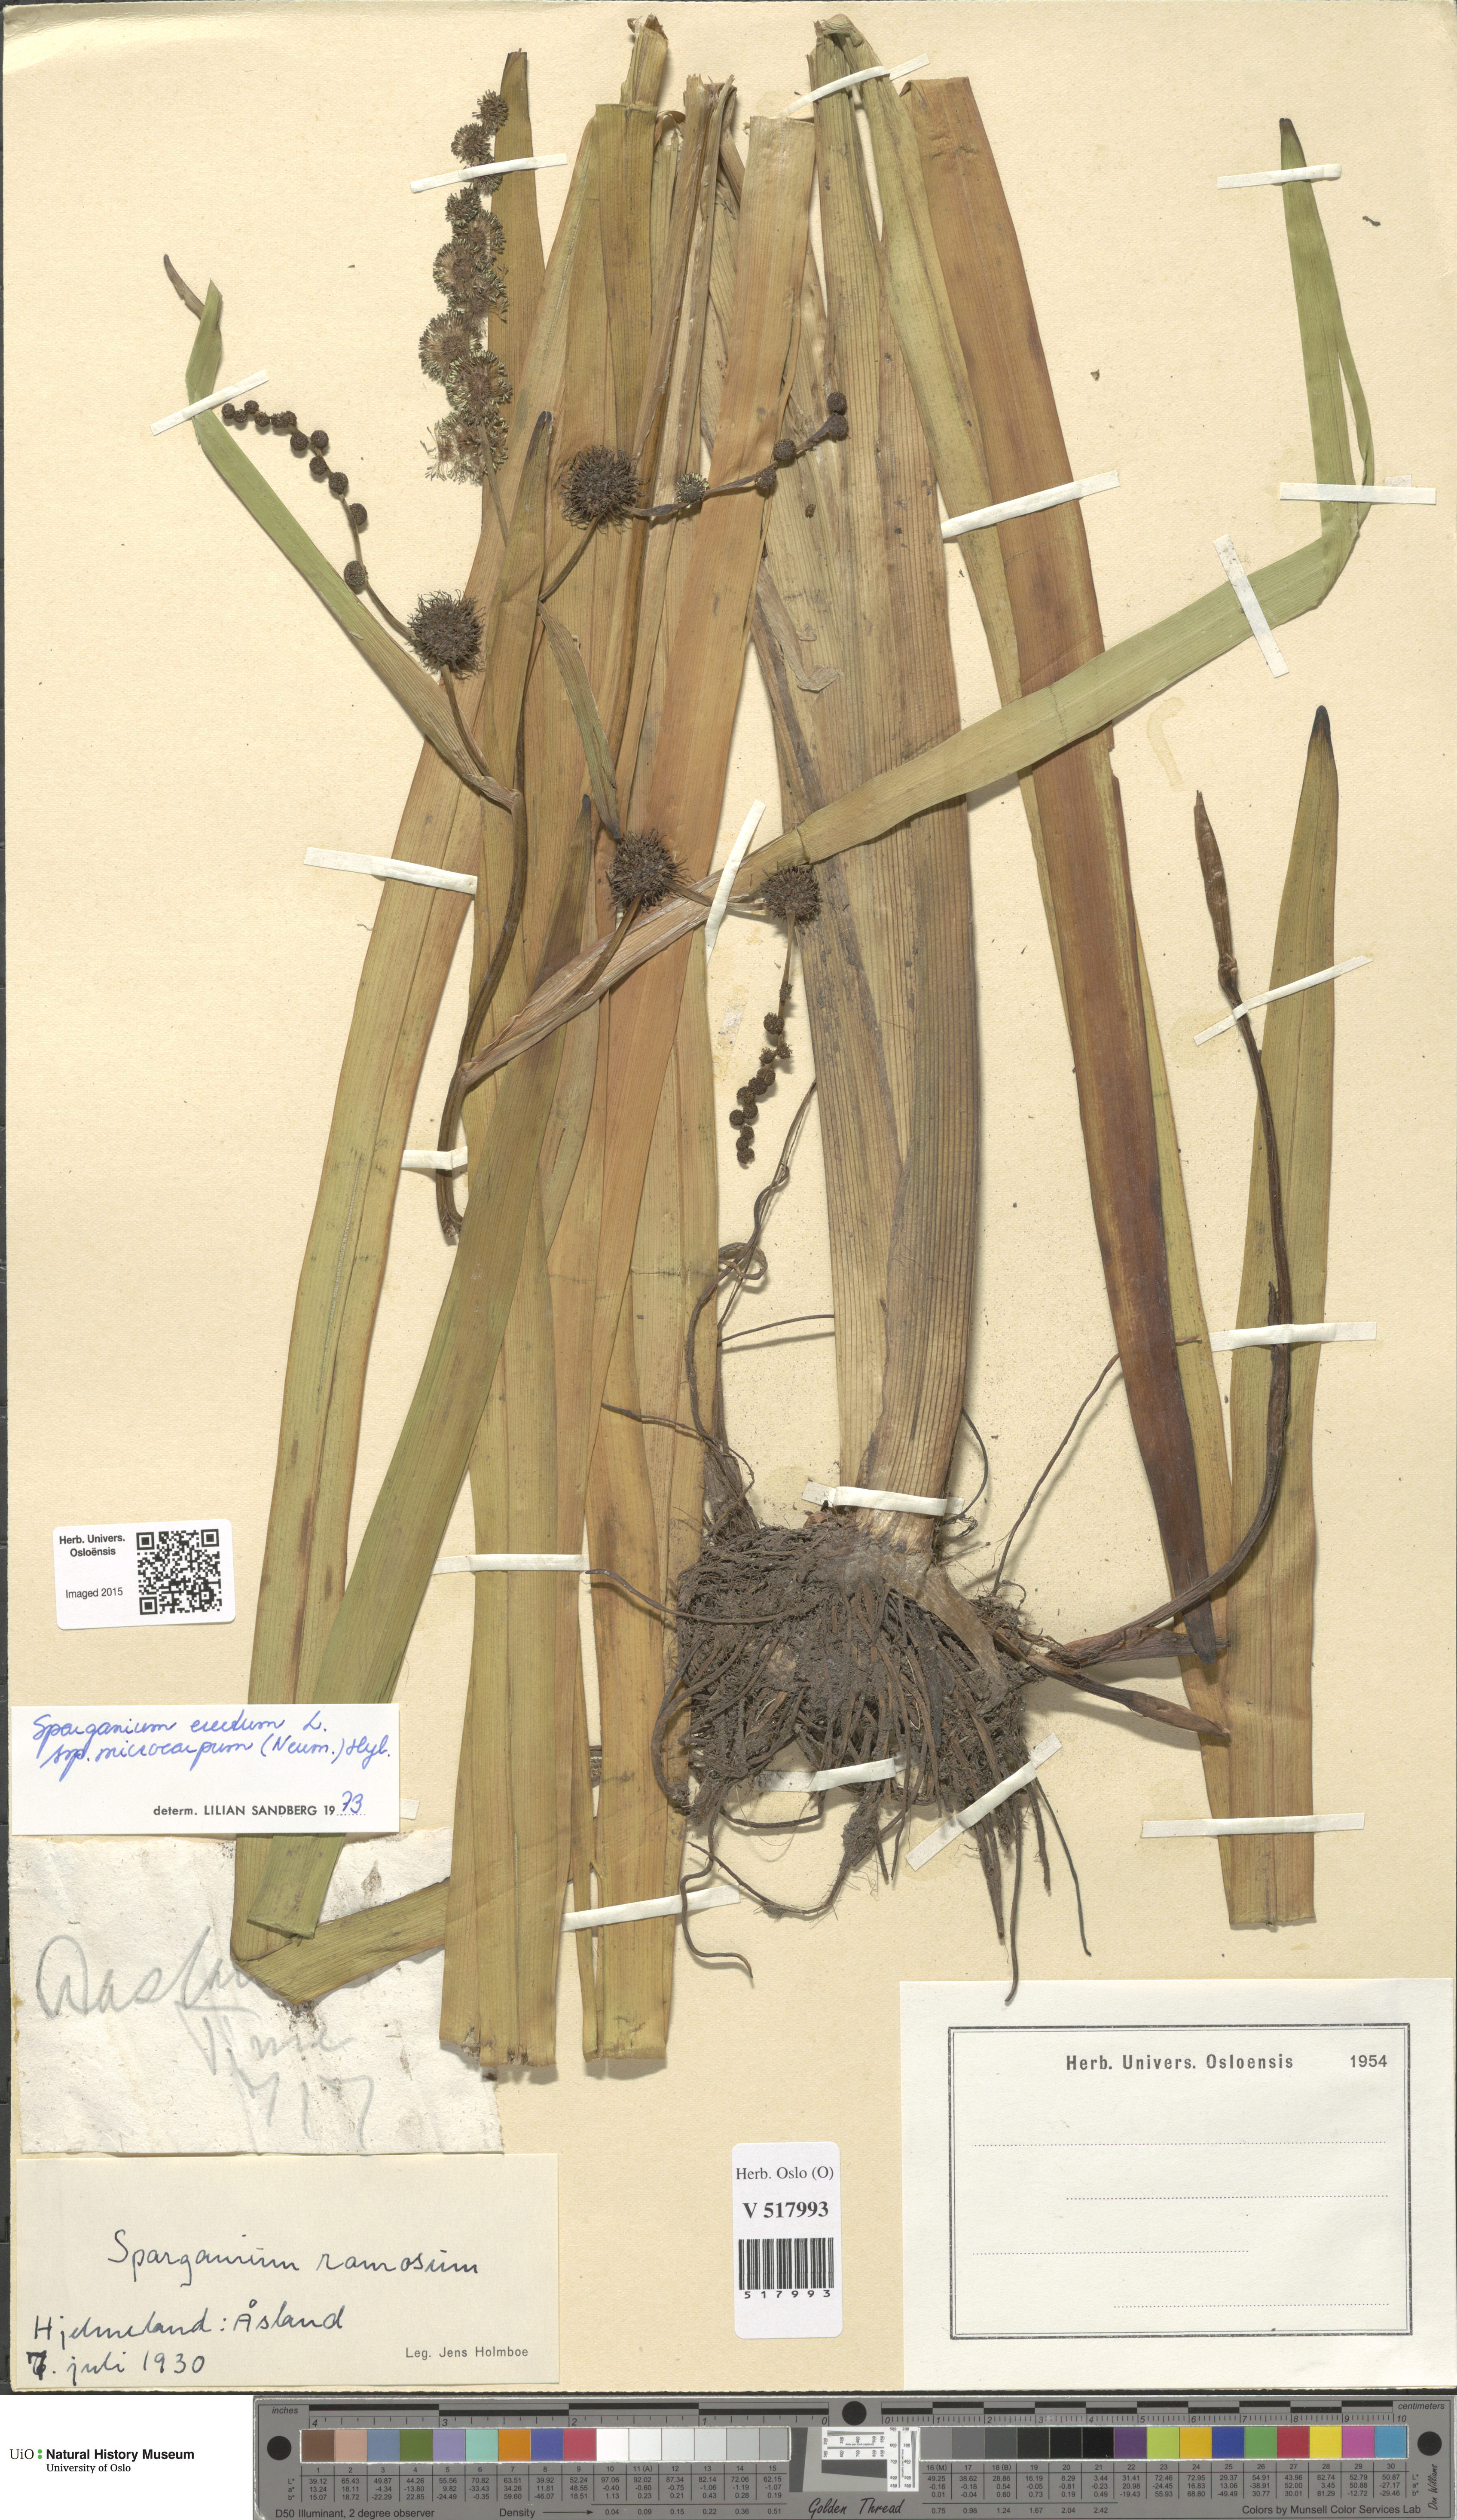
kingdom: Plantae
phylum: Tracheophyta
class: Liliopsida
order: Poales
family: Typhaceae
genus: Sparganium
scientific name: Sparganium erectum
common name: Branched bur-reed
